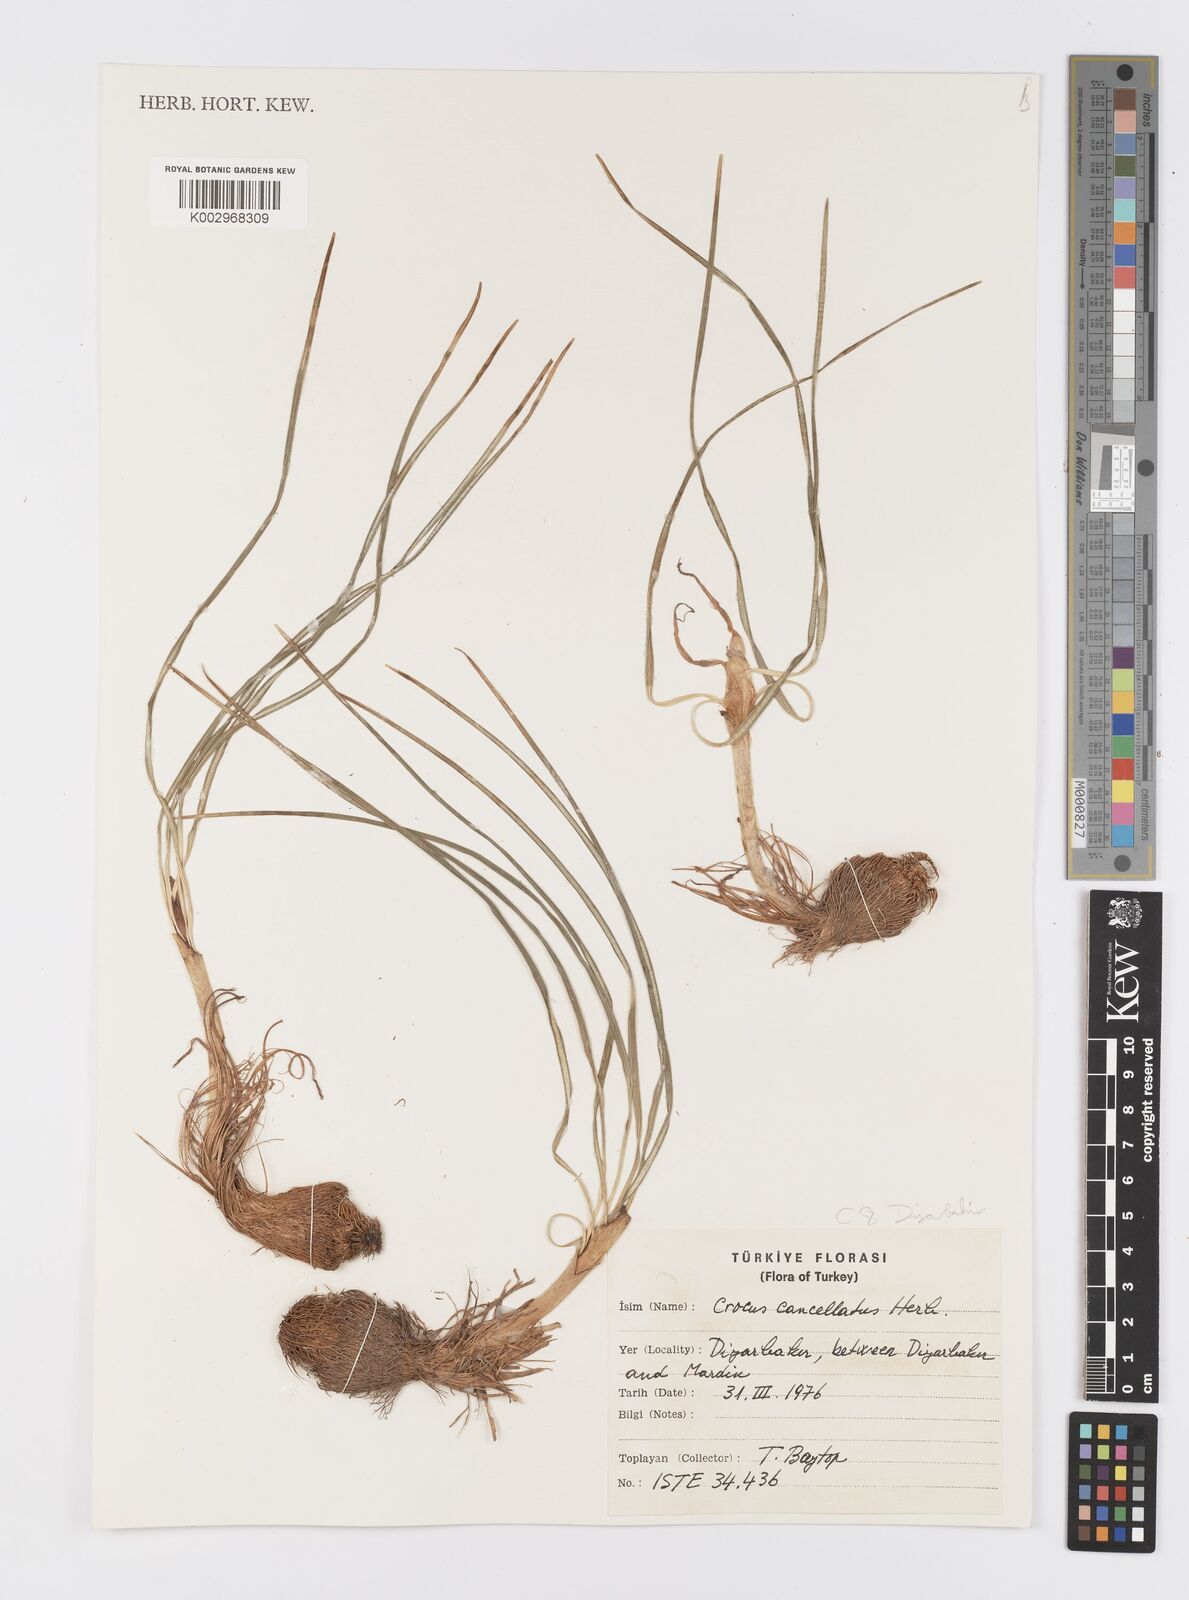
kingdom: Plantae
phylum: Tracheophyta
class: Liliopsida
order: Asparagales
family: Iridaceae
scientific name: Iridaceae
